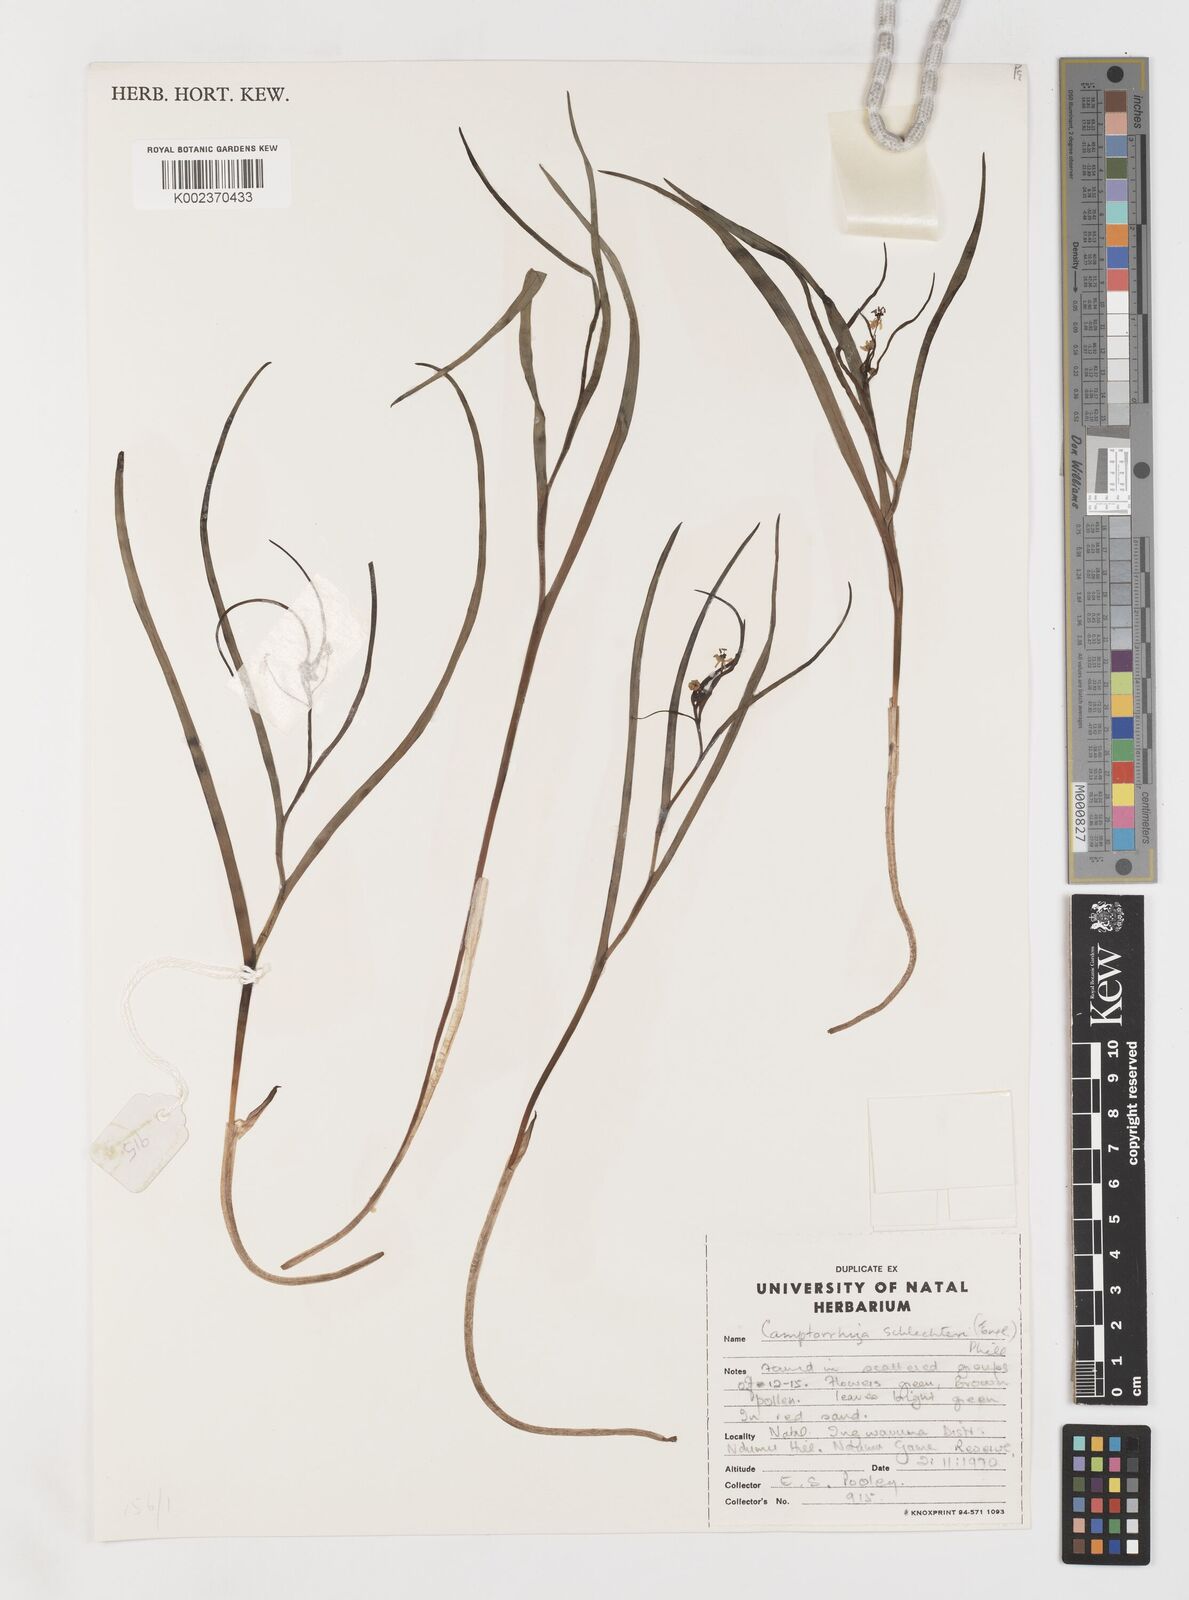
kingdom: Plantae
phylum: Tracheophyta
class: Liliopsida
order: Liliales
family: Colchicaceae
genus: Camptorrhiza
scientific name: Camptorrhiza strumosa
